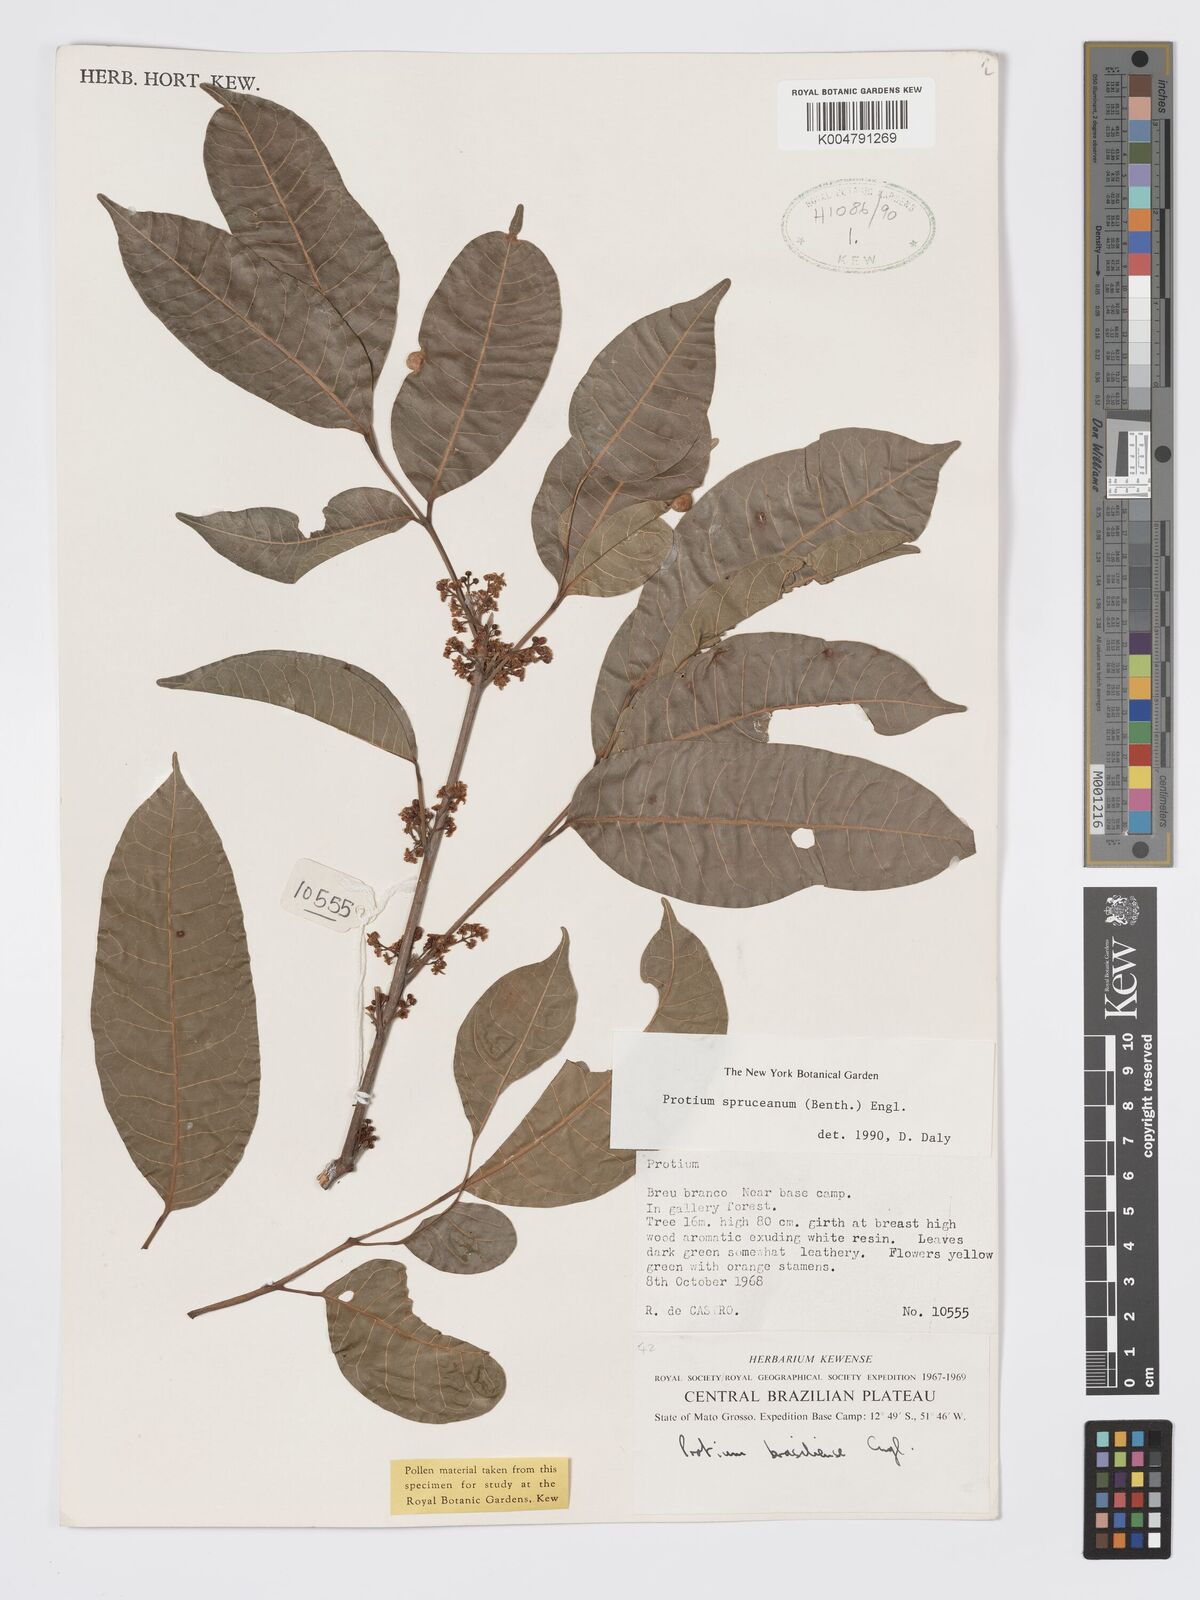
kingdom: Plantae
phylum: Tracheophyta
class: Magnoliopsida
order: Sapindales
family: Burseraceae
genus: Protium
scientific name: Protium spruceanum
